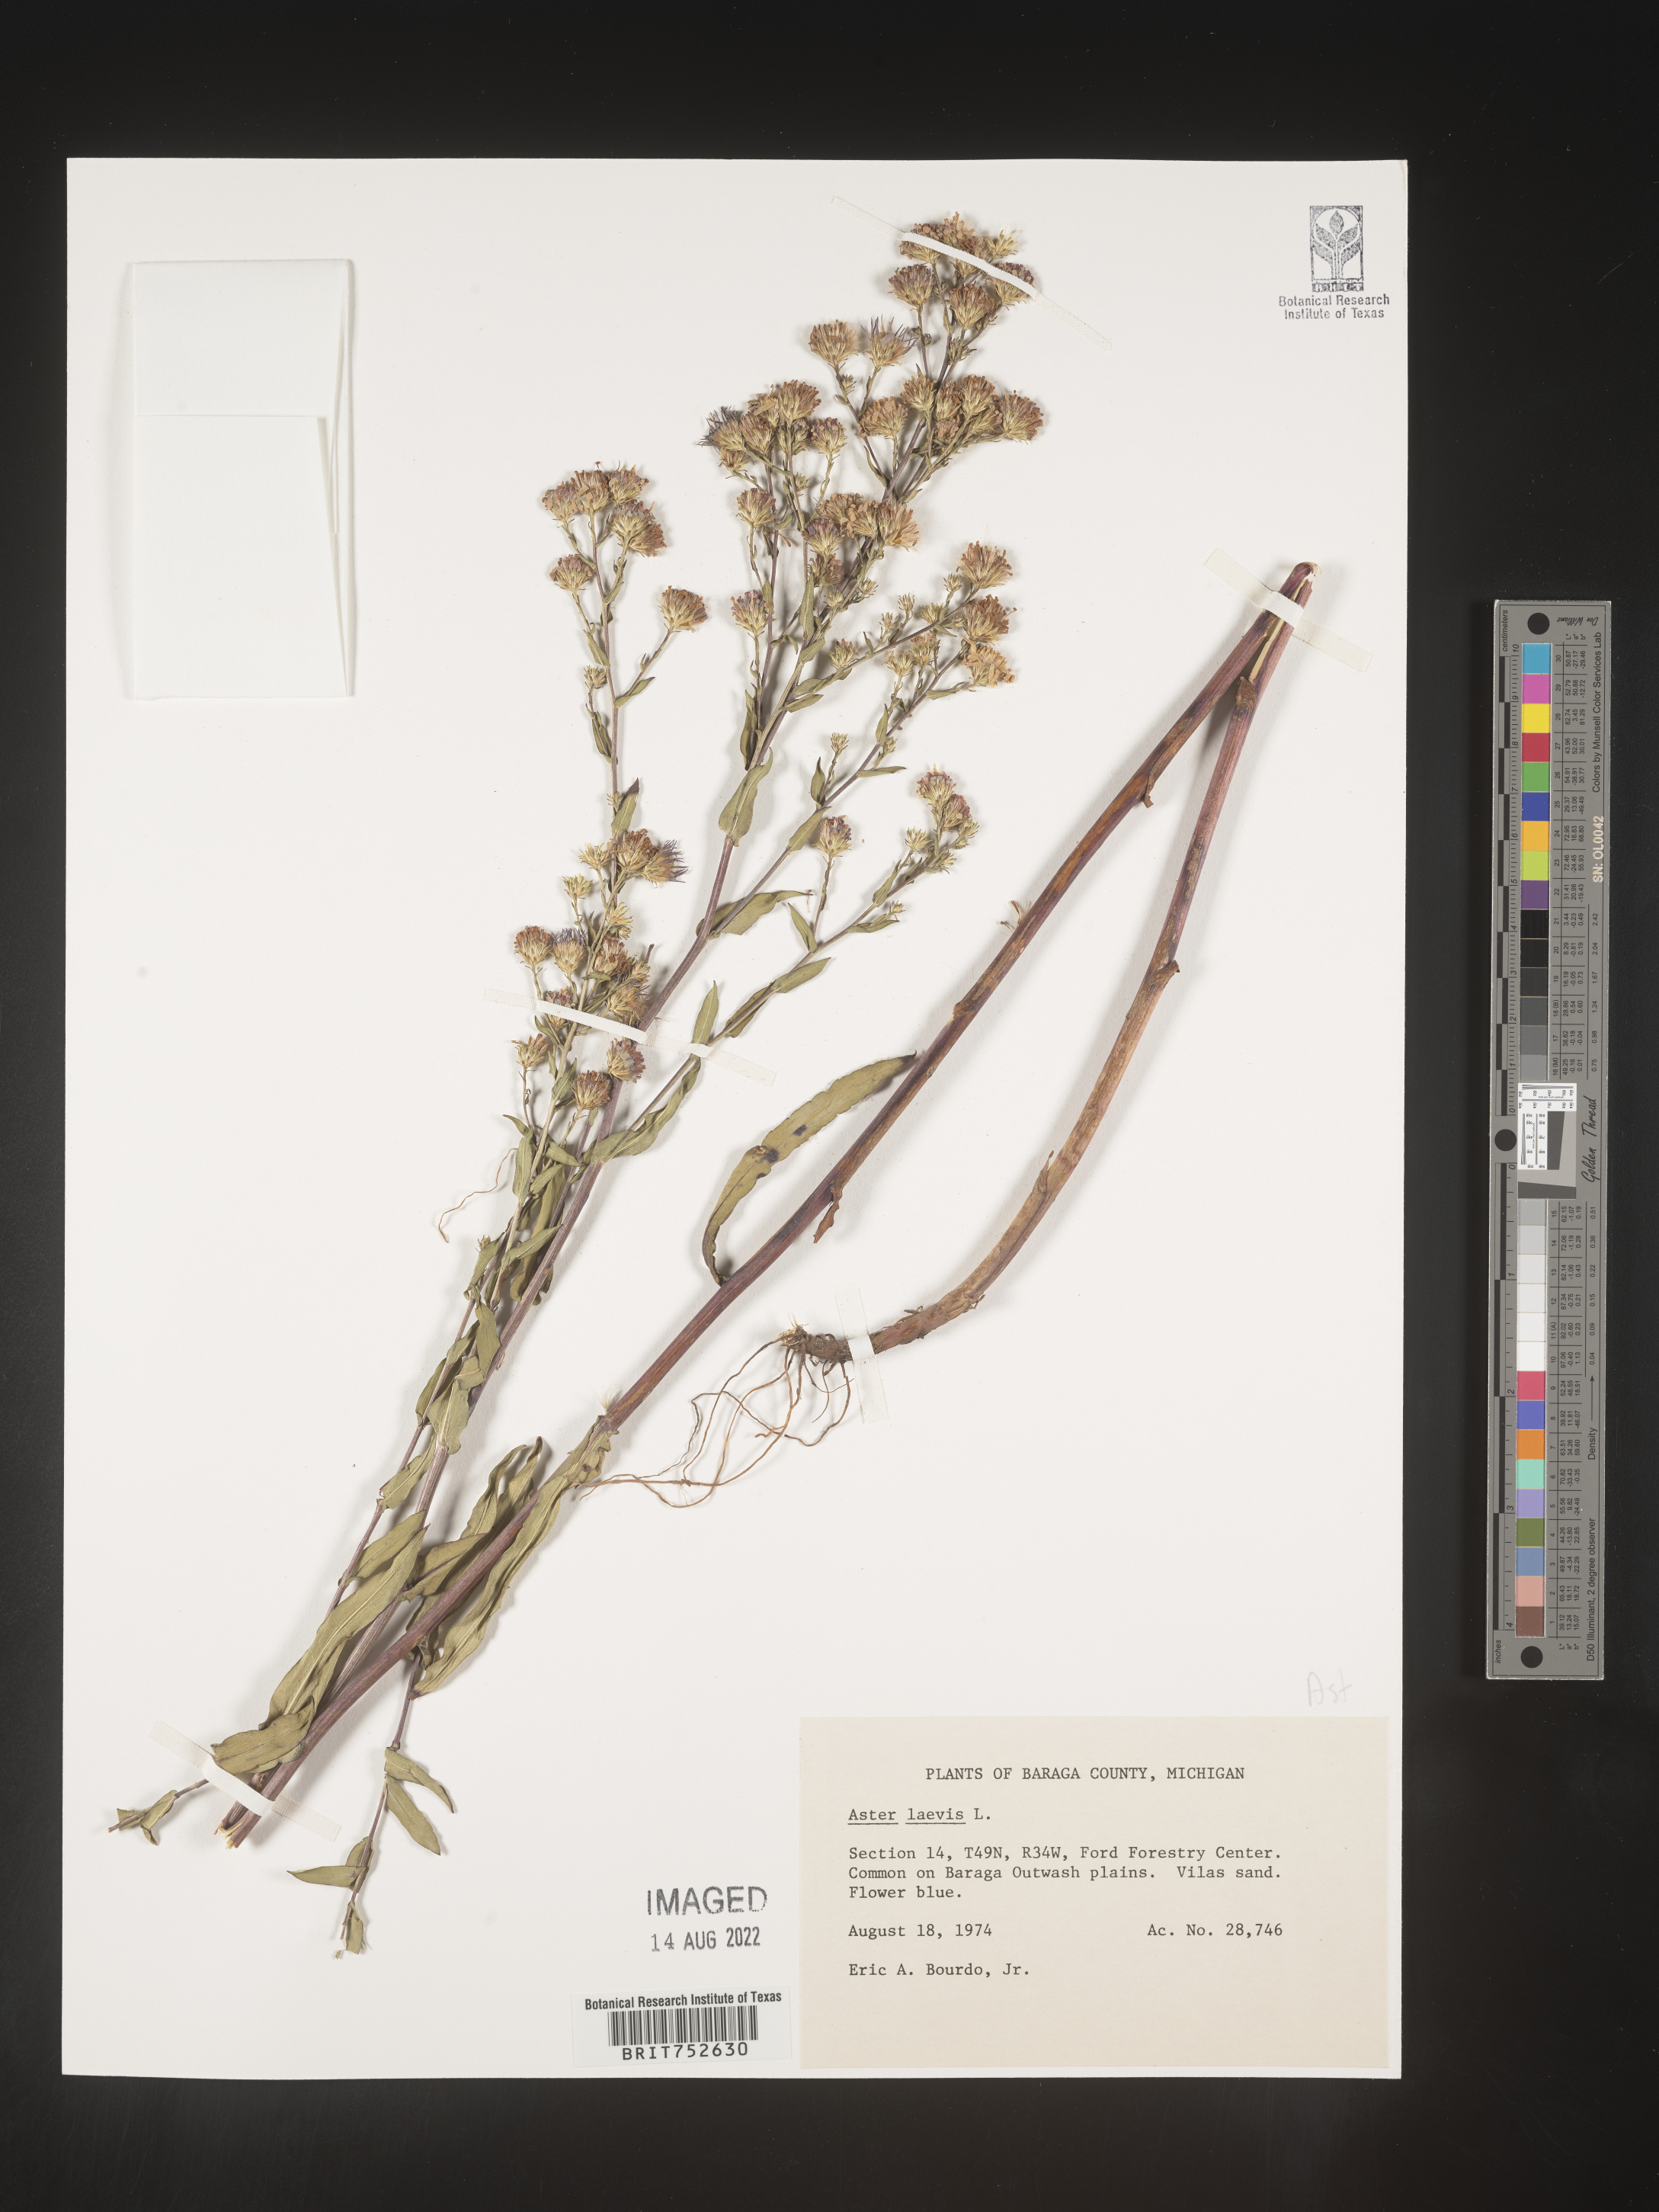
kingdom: Plantae
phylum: Tracheophyta
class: Magnoliopsida
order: Asterales
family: Asteraceae
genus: Symphyotrichum
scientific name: Symphyotrichum laeve
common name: Glaucous aster
